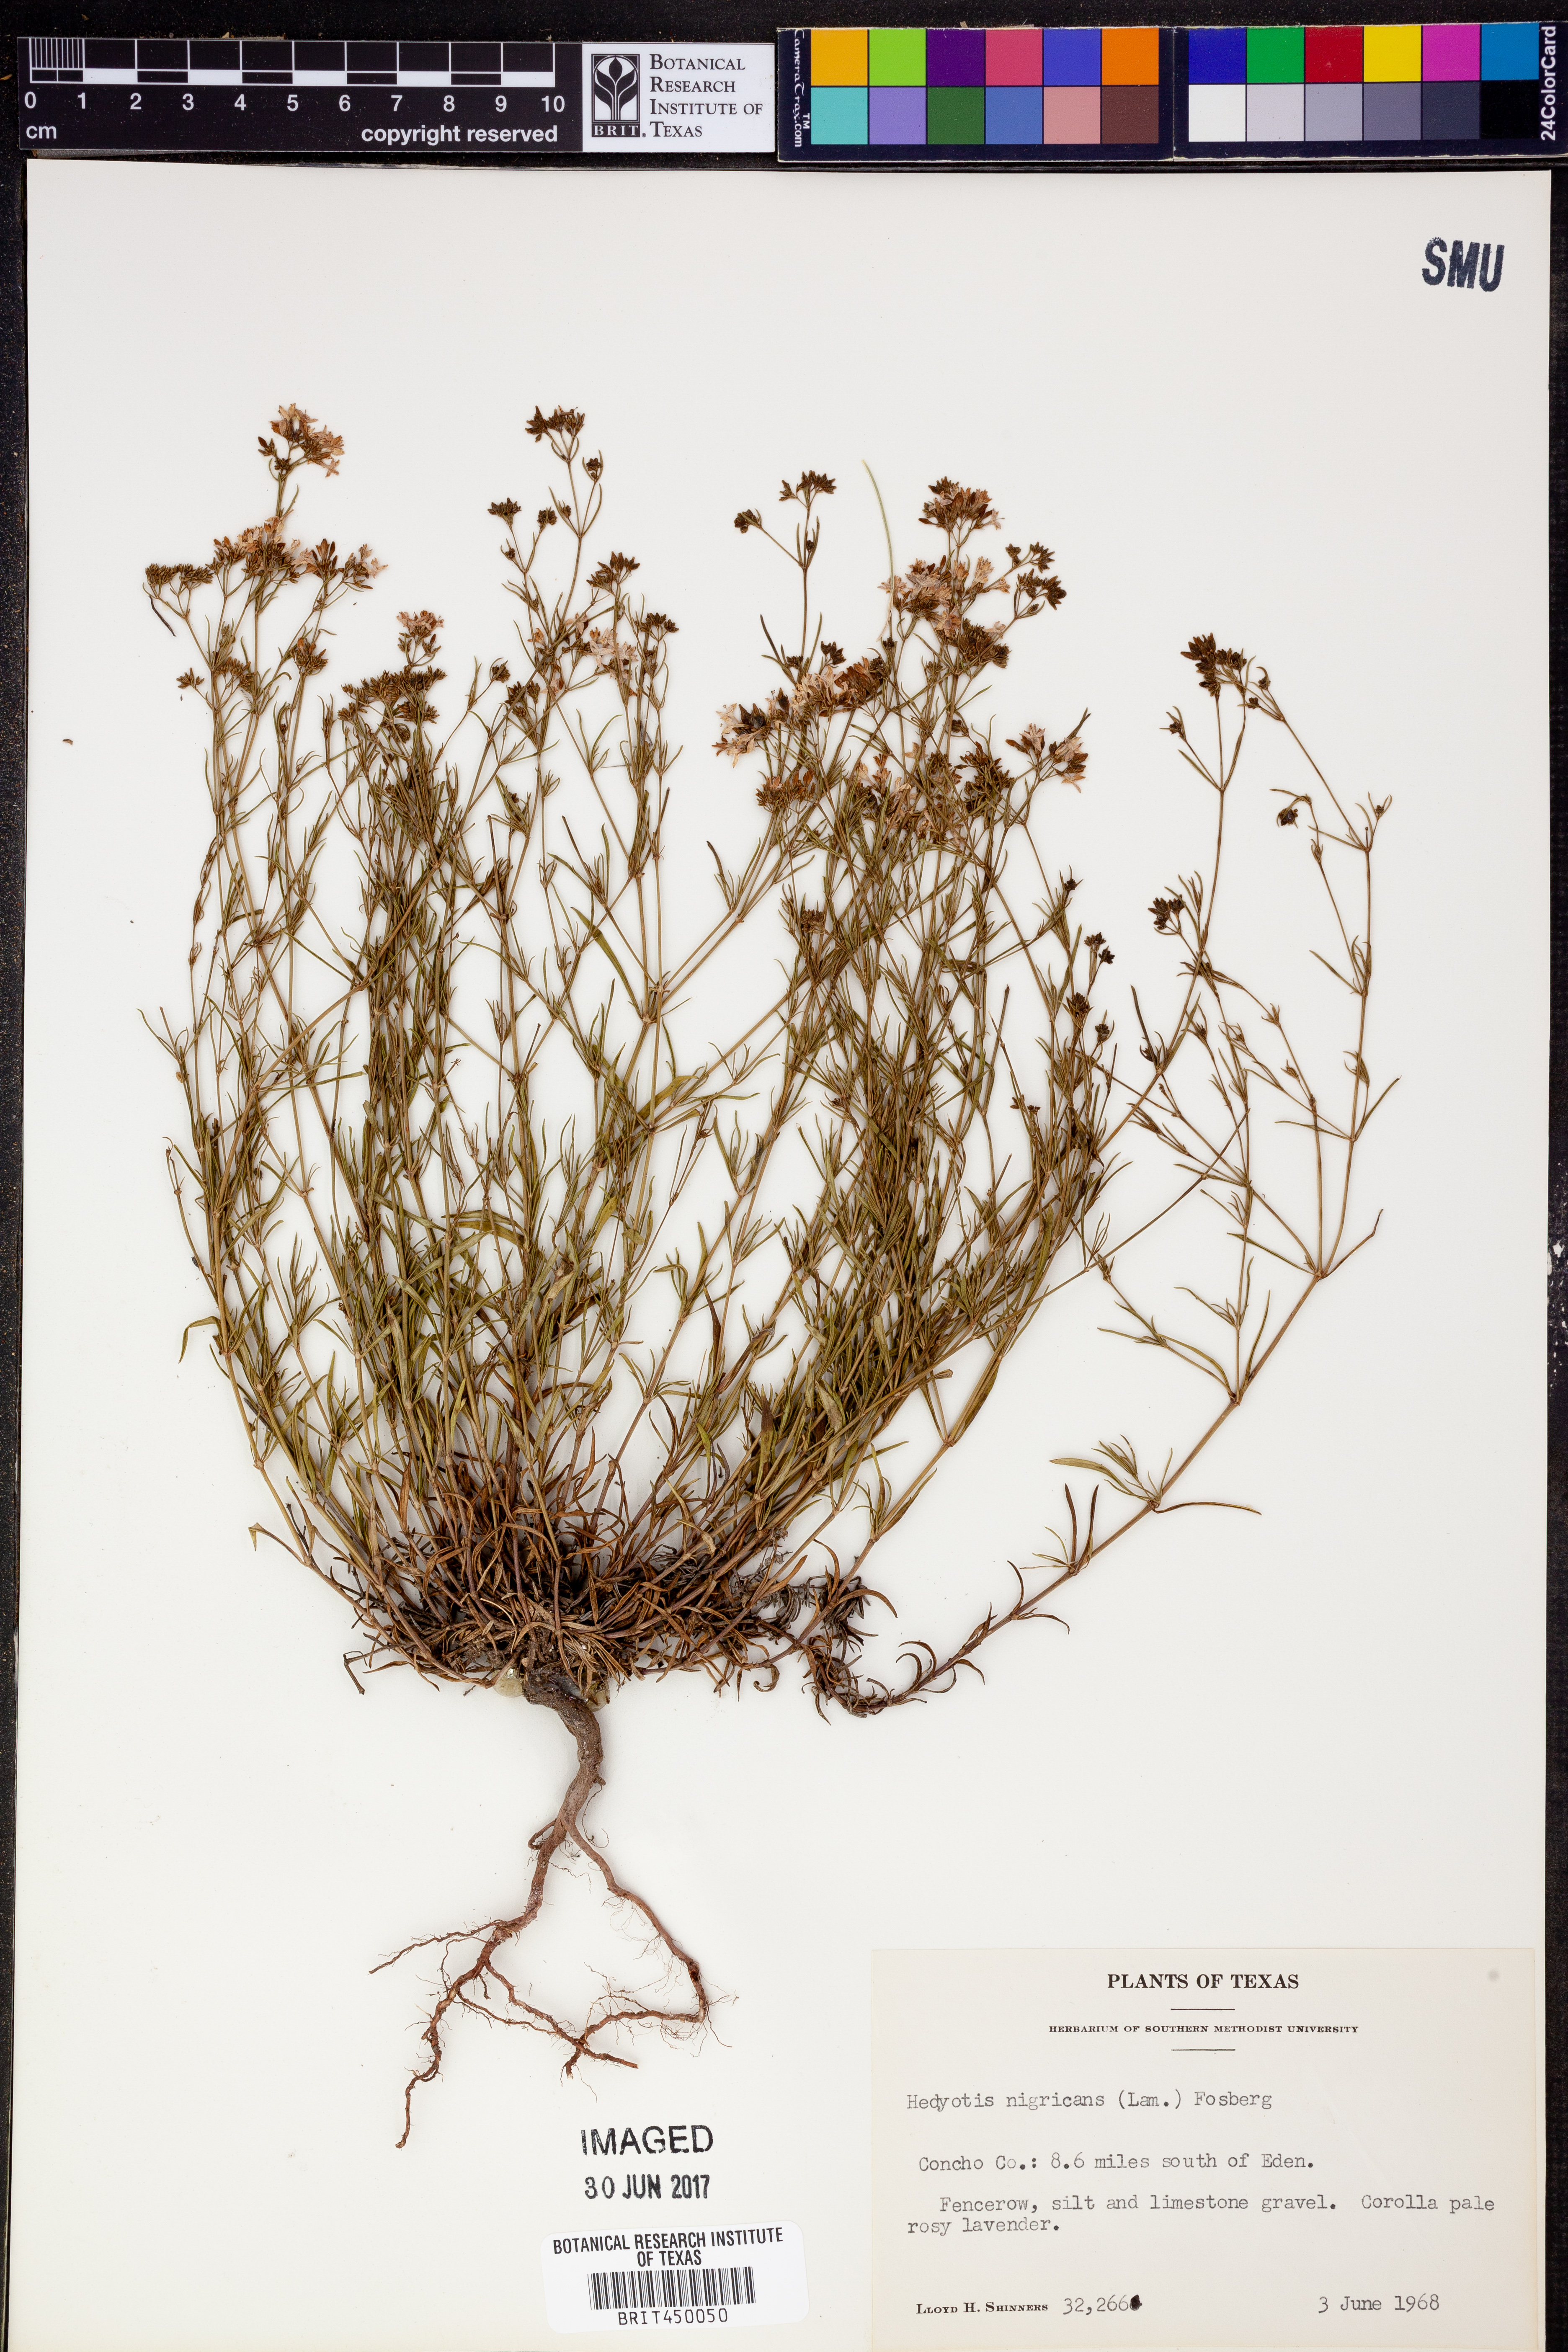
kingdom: Plantae
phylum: Tracheophyta
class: Magnoliopsida
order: Gentianales
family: Rubiaceae
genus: Stenaria
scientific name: Stenaria nigricans
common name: Diamondflowers
